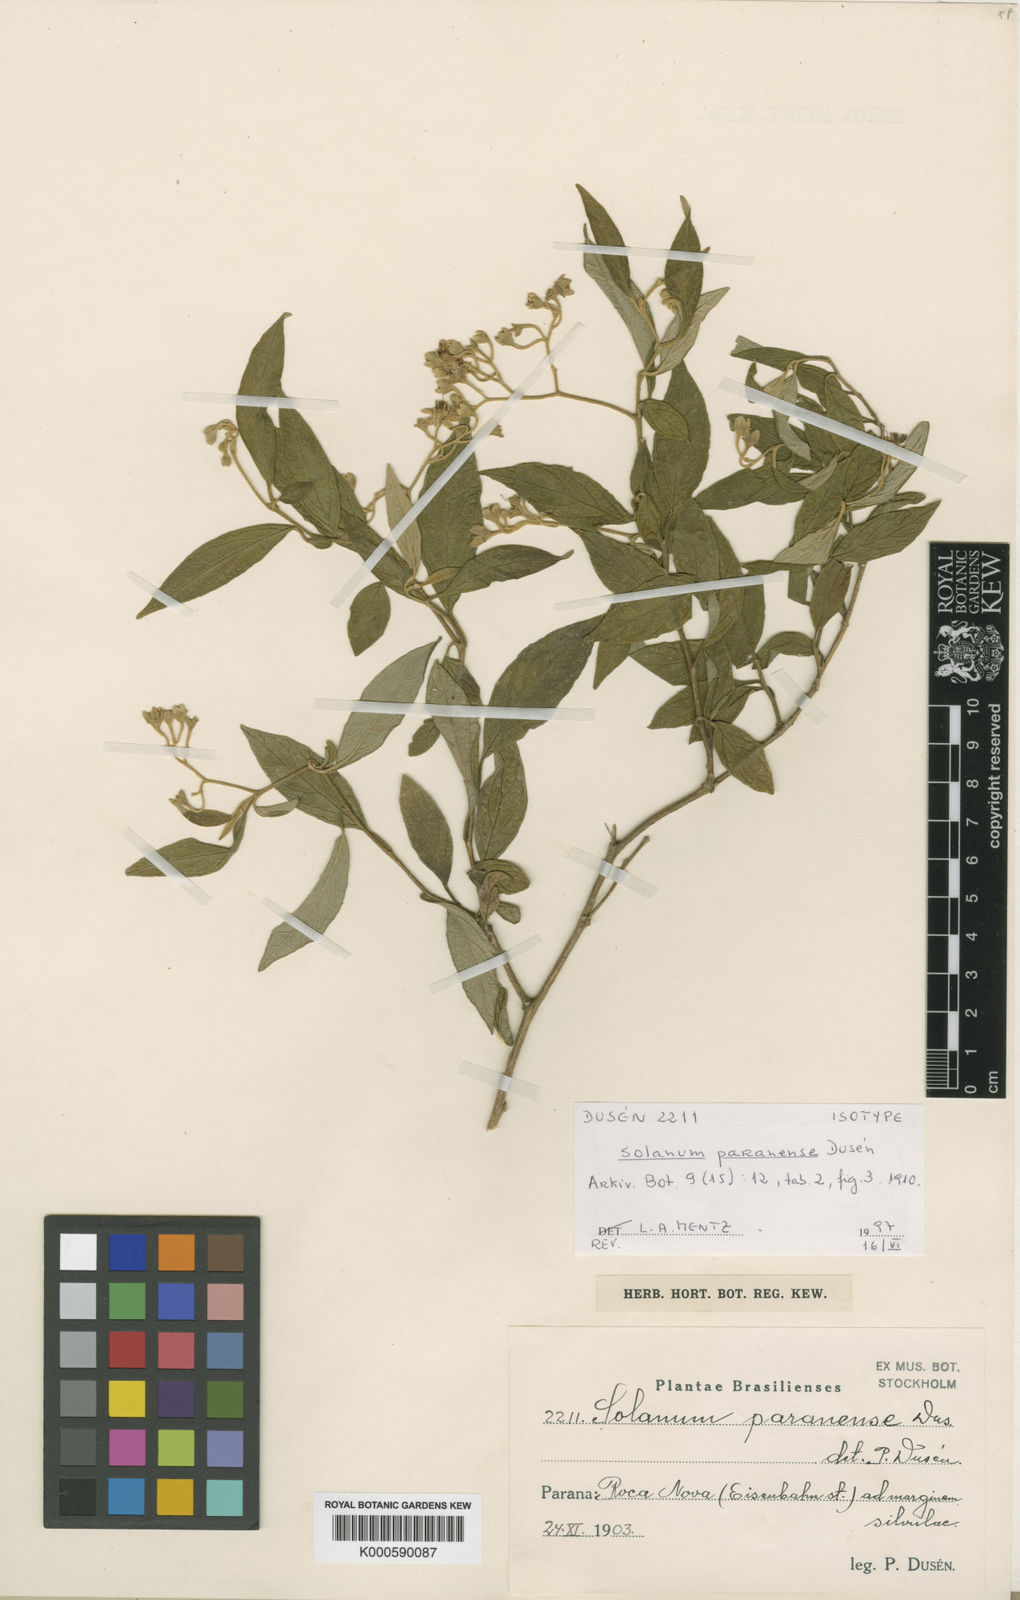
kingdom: Plantae
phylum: Tracheophyta
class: Magnoliopsida
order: Solanales
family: Solanaceae
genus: Solanum
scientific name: Solanum
